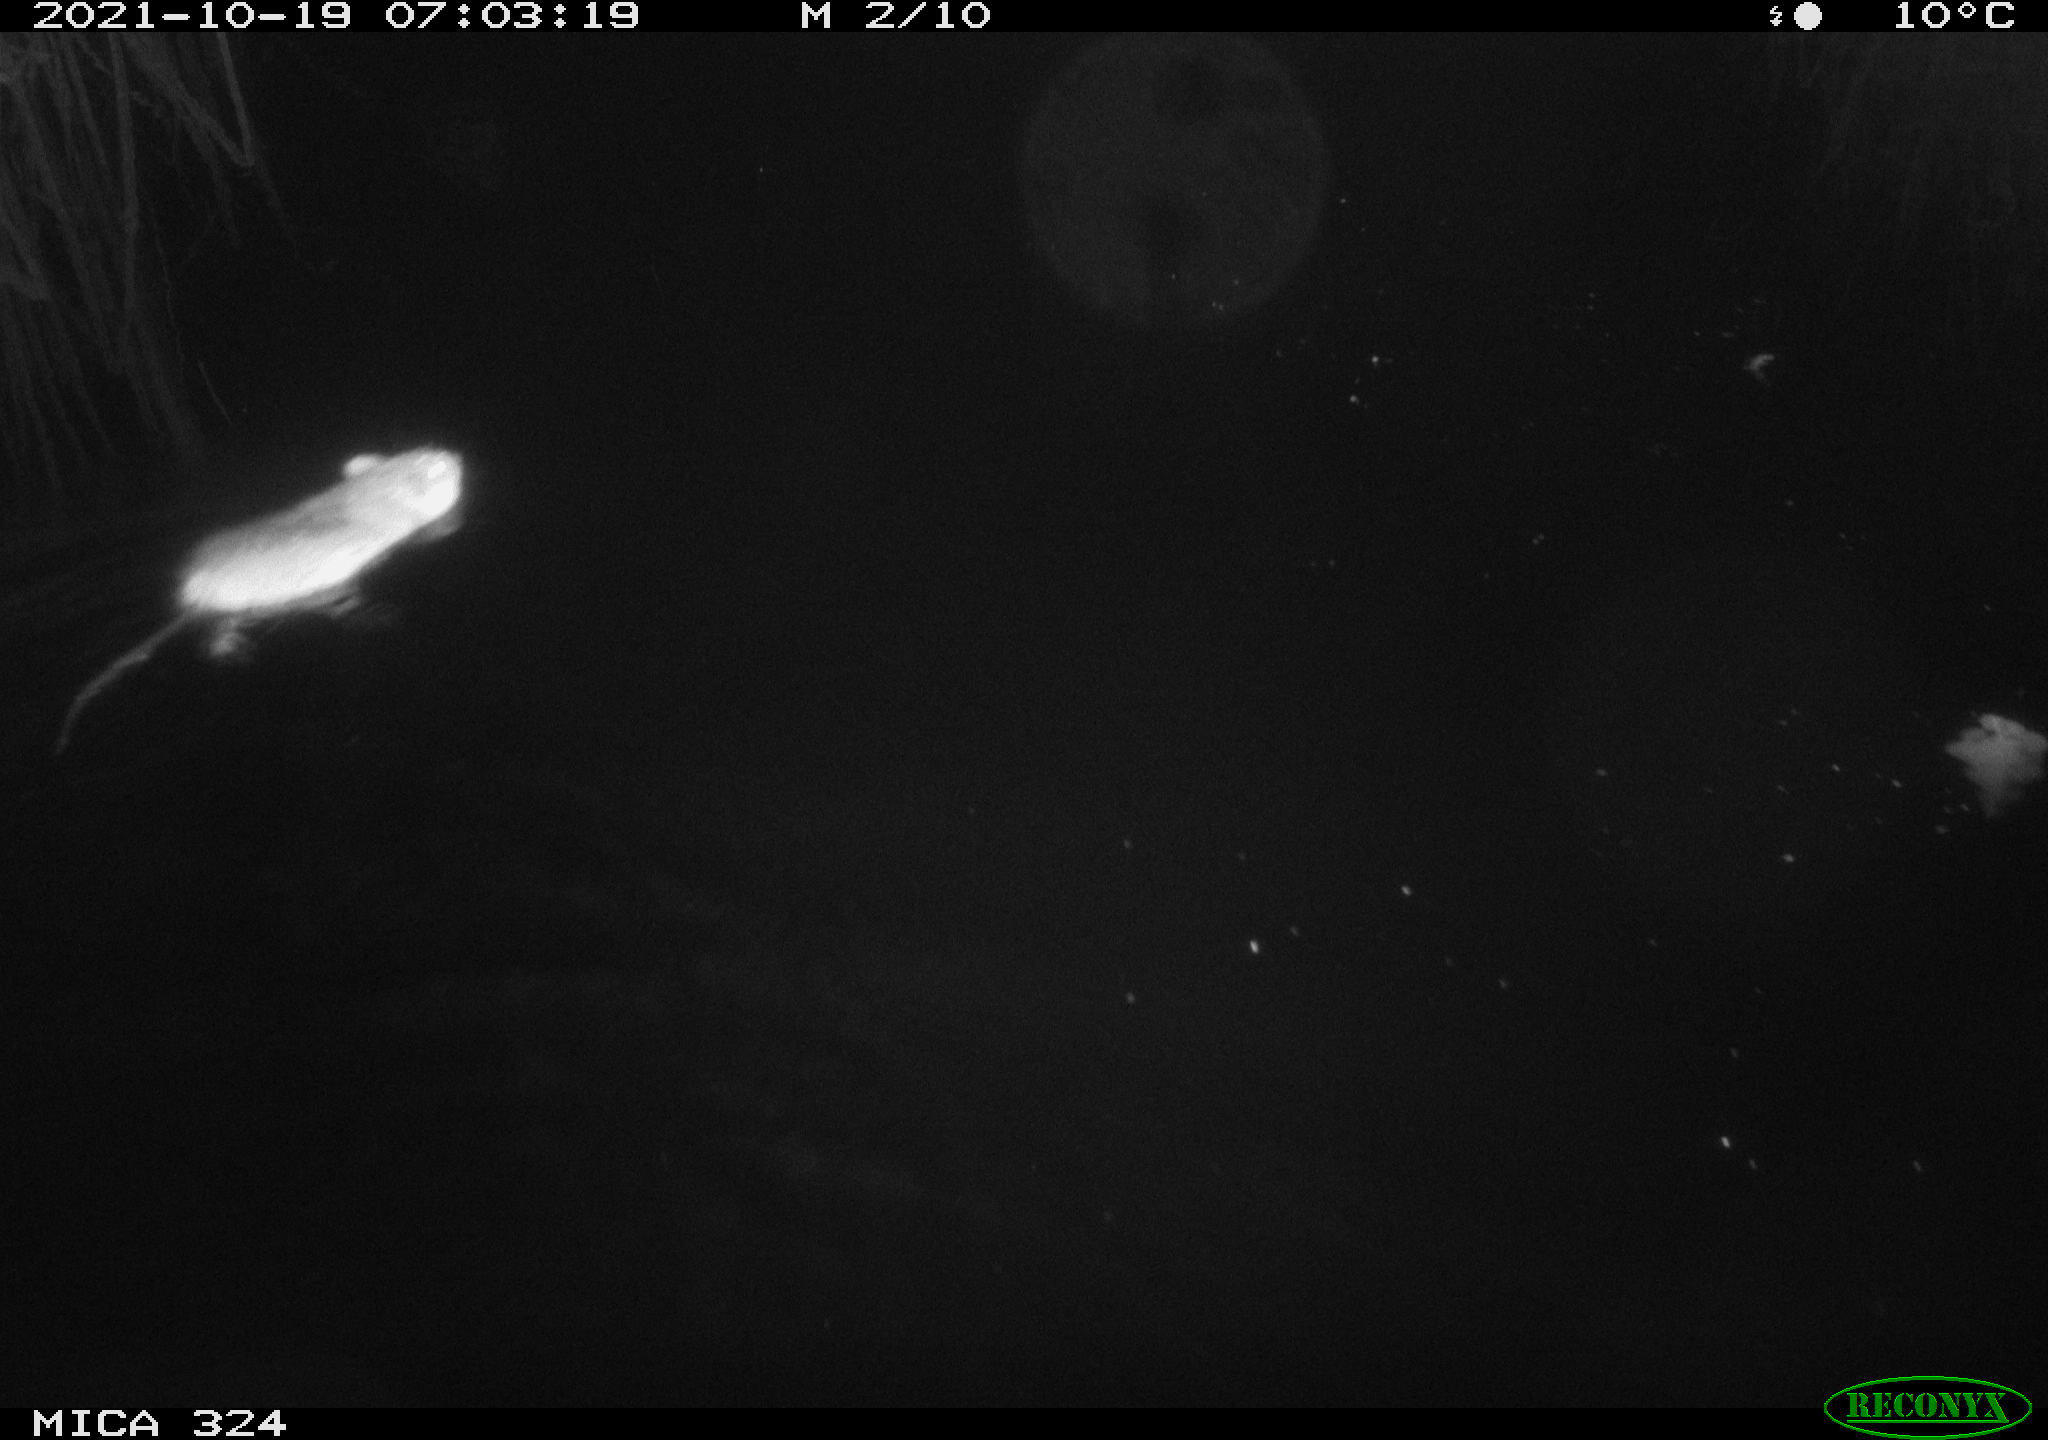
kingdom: Animalia
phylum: Chordata
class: Mammalia
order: Rodentia
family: Cricetidae
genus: Ondatra
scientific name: Ondatra zibethicus
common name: Muskrat
